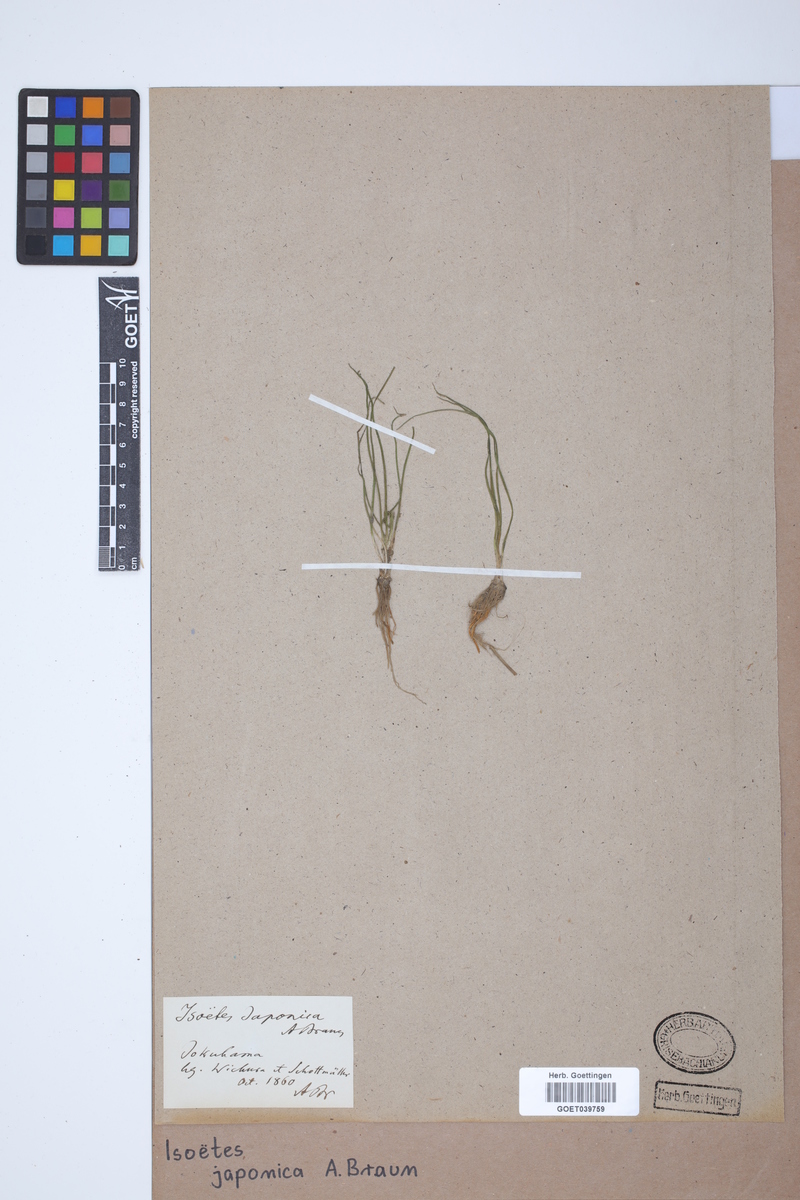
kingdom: Plantae
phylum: Tracheophyta
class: Lycopodiopsida
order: Isoetales
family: Isoetaceae
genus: Isoetes
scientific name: Isoetes japonica
